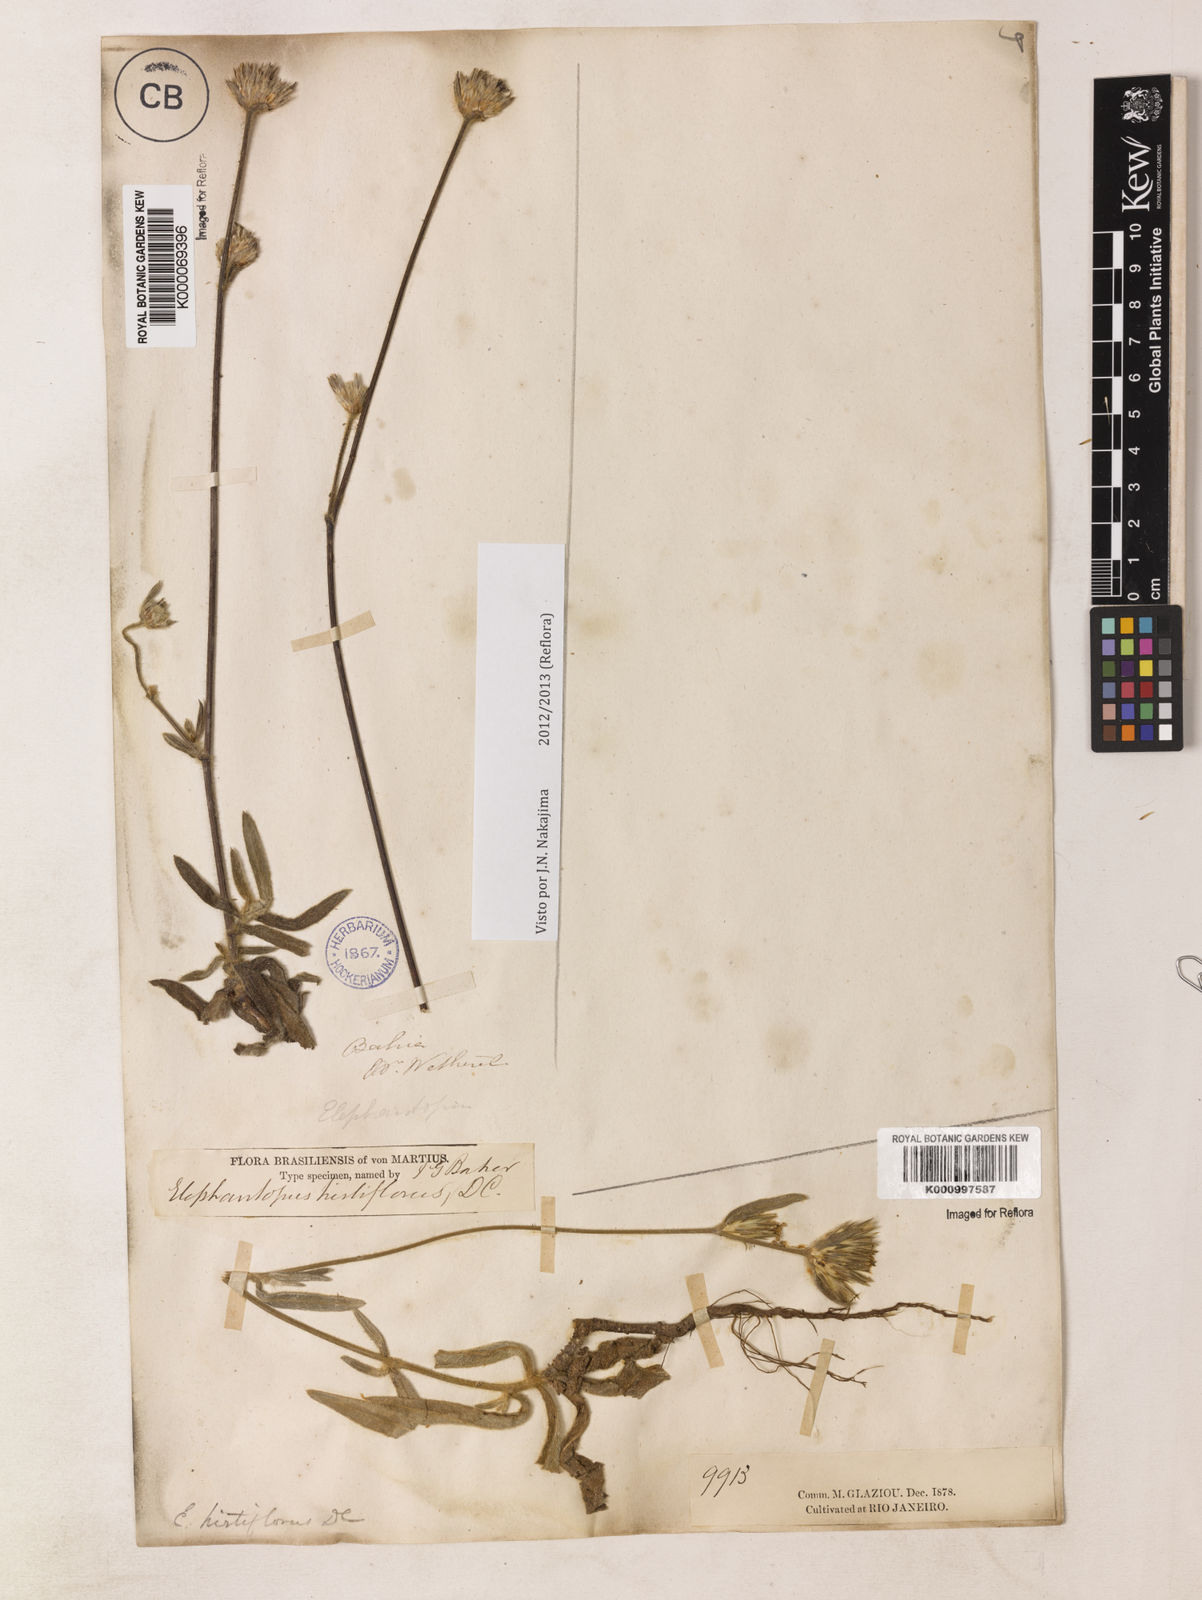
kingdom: Plantae
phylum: Tracheophyta
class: Magnoliopsida
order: Asterales
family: Asteraceae
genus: Elephantopus
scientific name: Elephantopus hirtiflorus
